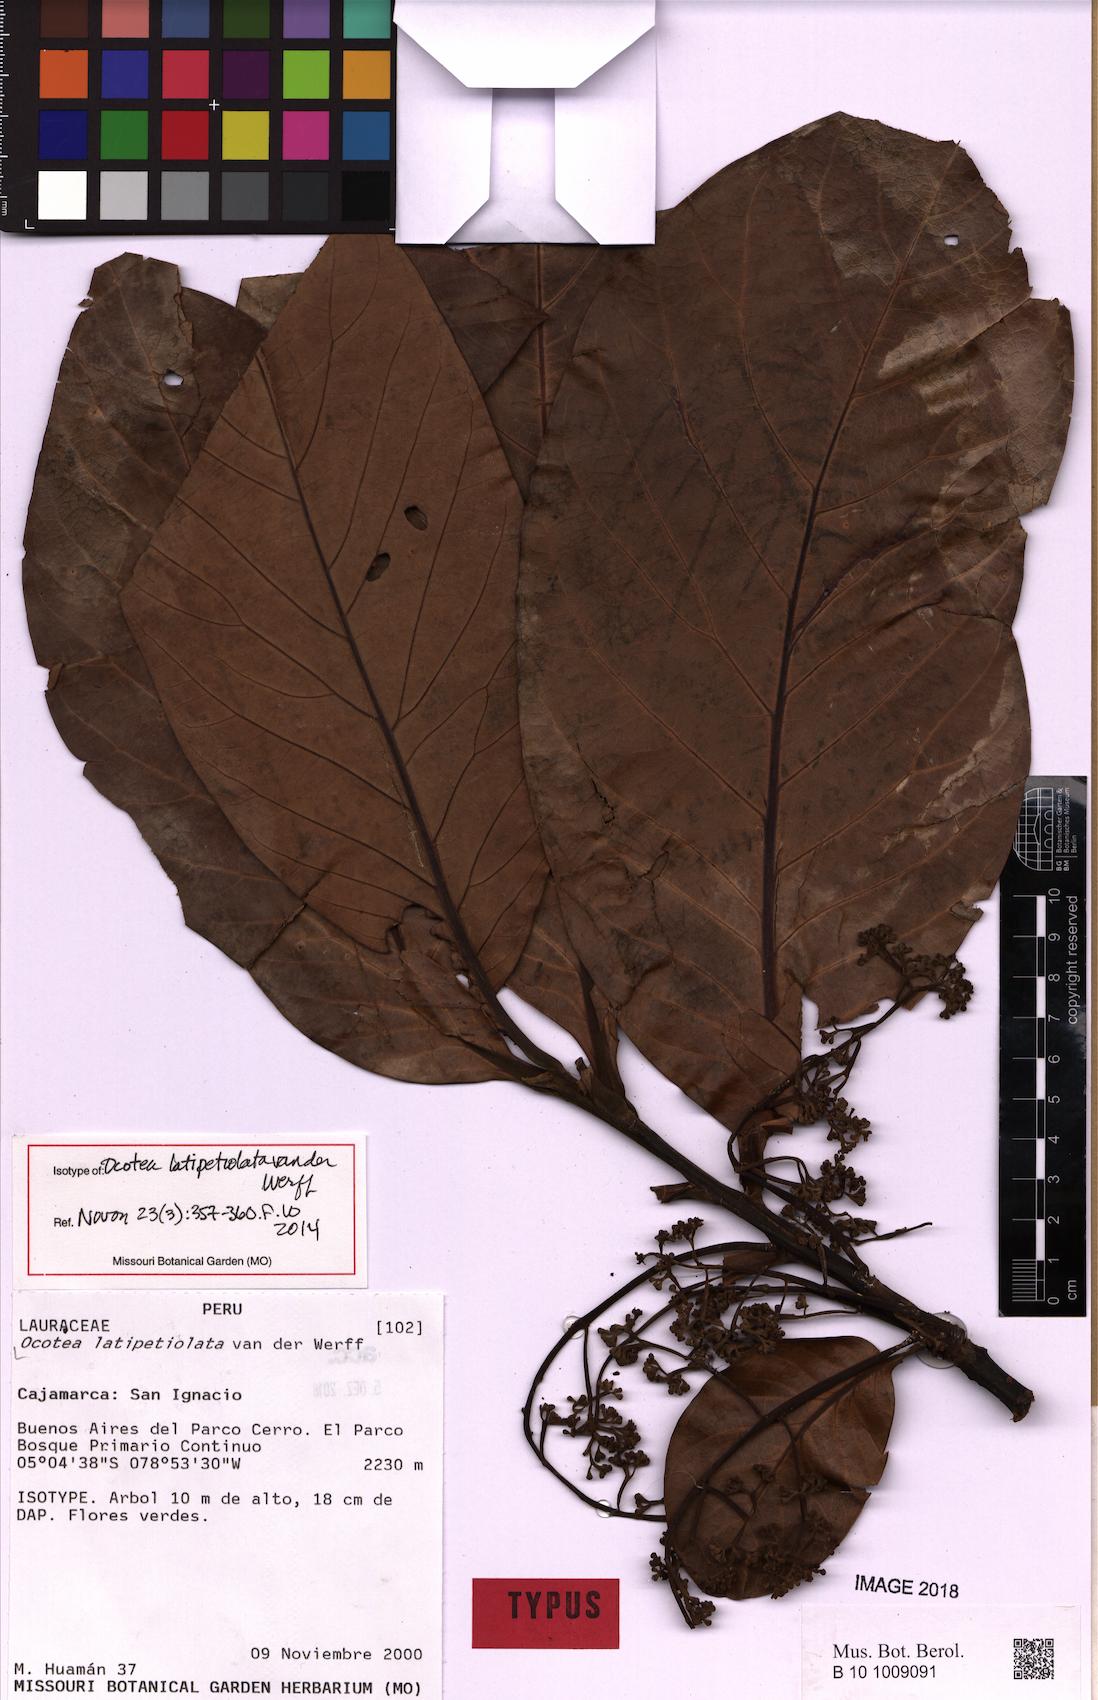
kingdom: Plantae
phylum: Tracheophyta
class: Magnoliopsida
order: Laurales
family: Lauraceae
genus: Ocotea
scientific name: Ocotea latipetiolata
